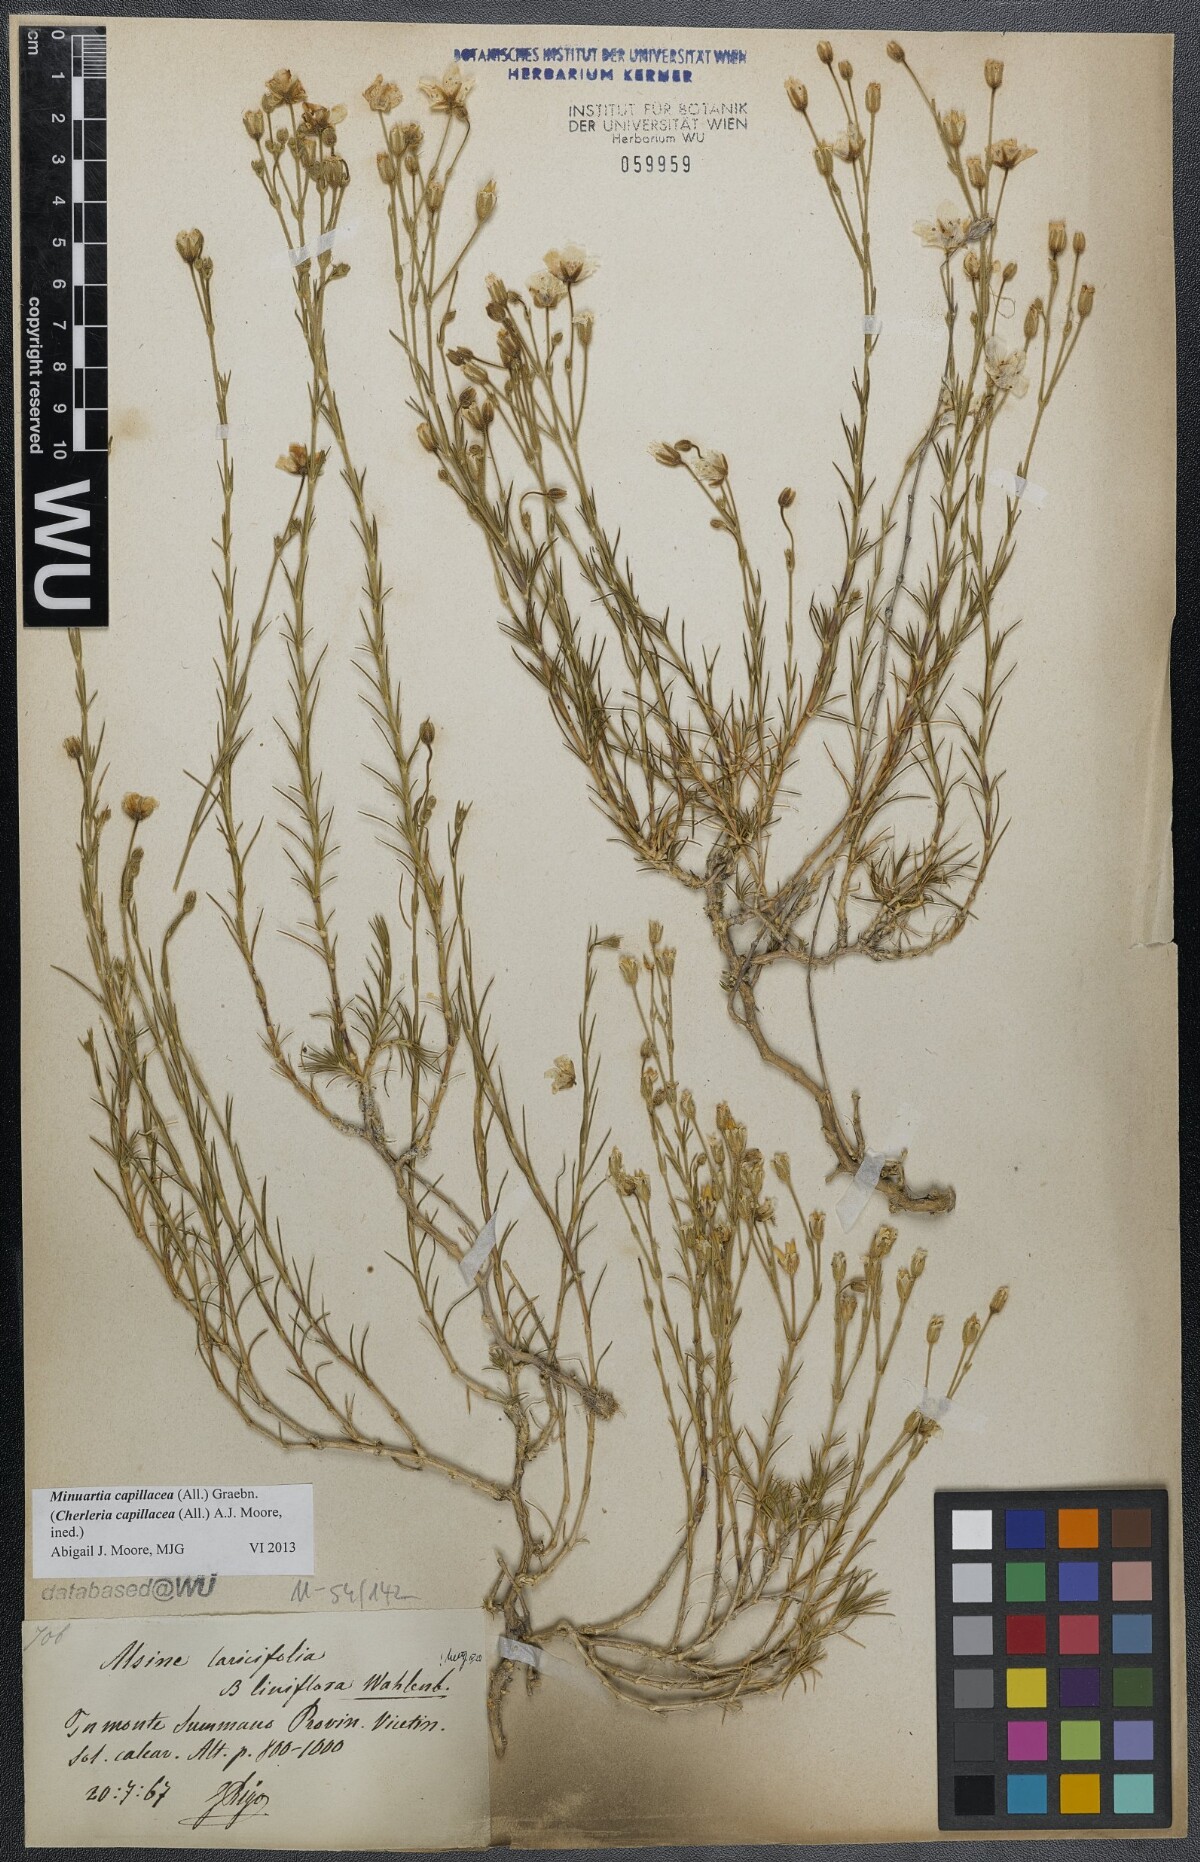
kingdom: Plantae
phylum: Tracheophyta
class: Magnoliopsida
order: Caryophyllales
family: Caryophyllaceae
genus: Cherleria
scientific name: Cherleria capillacea
